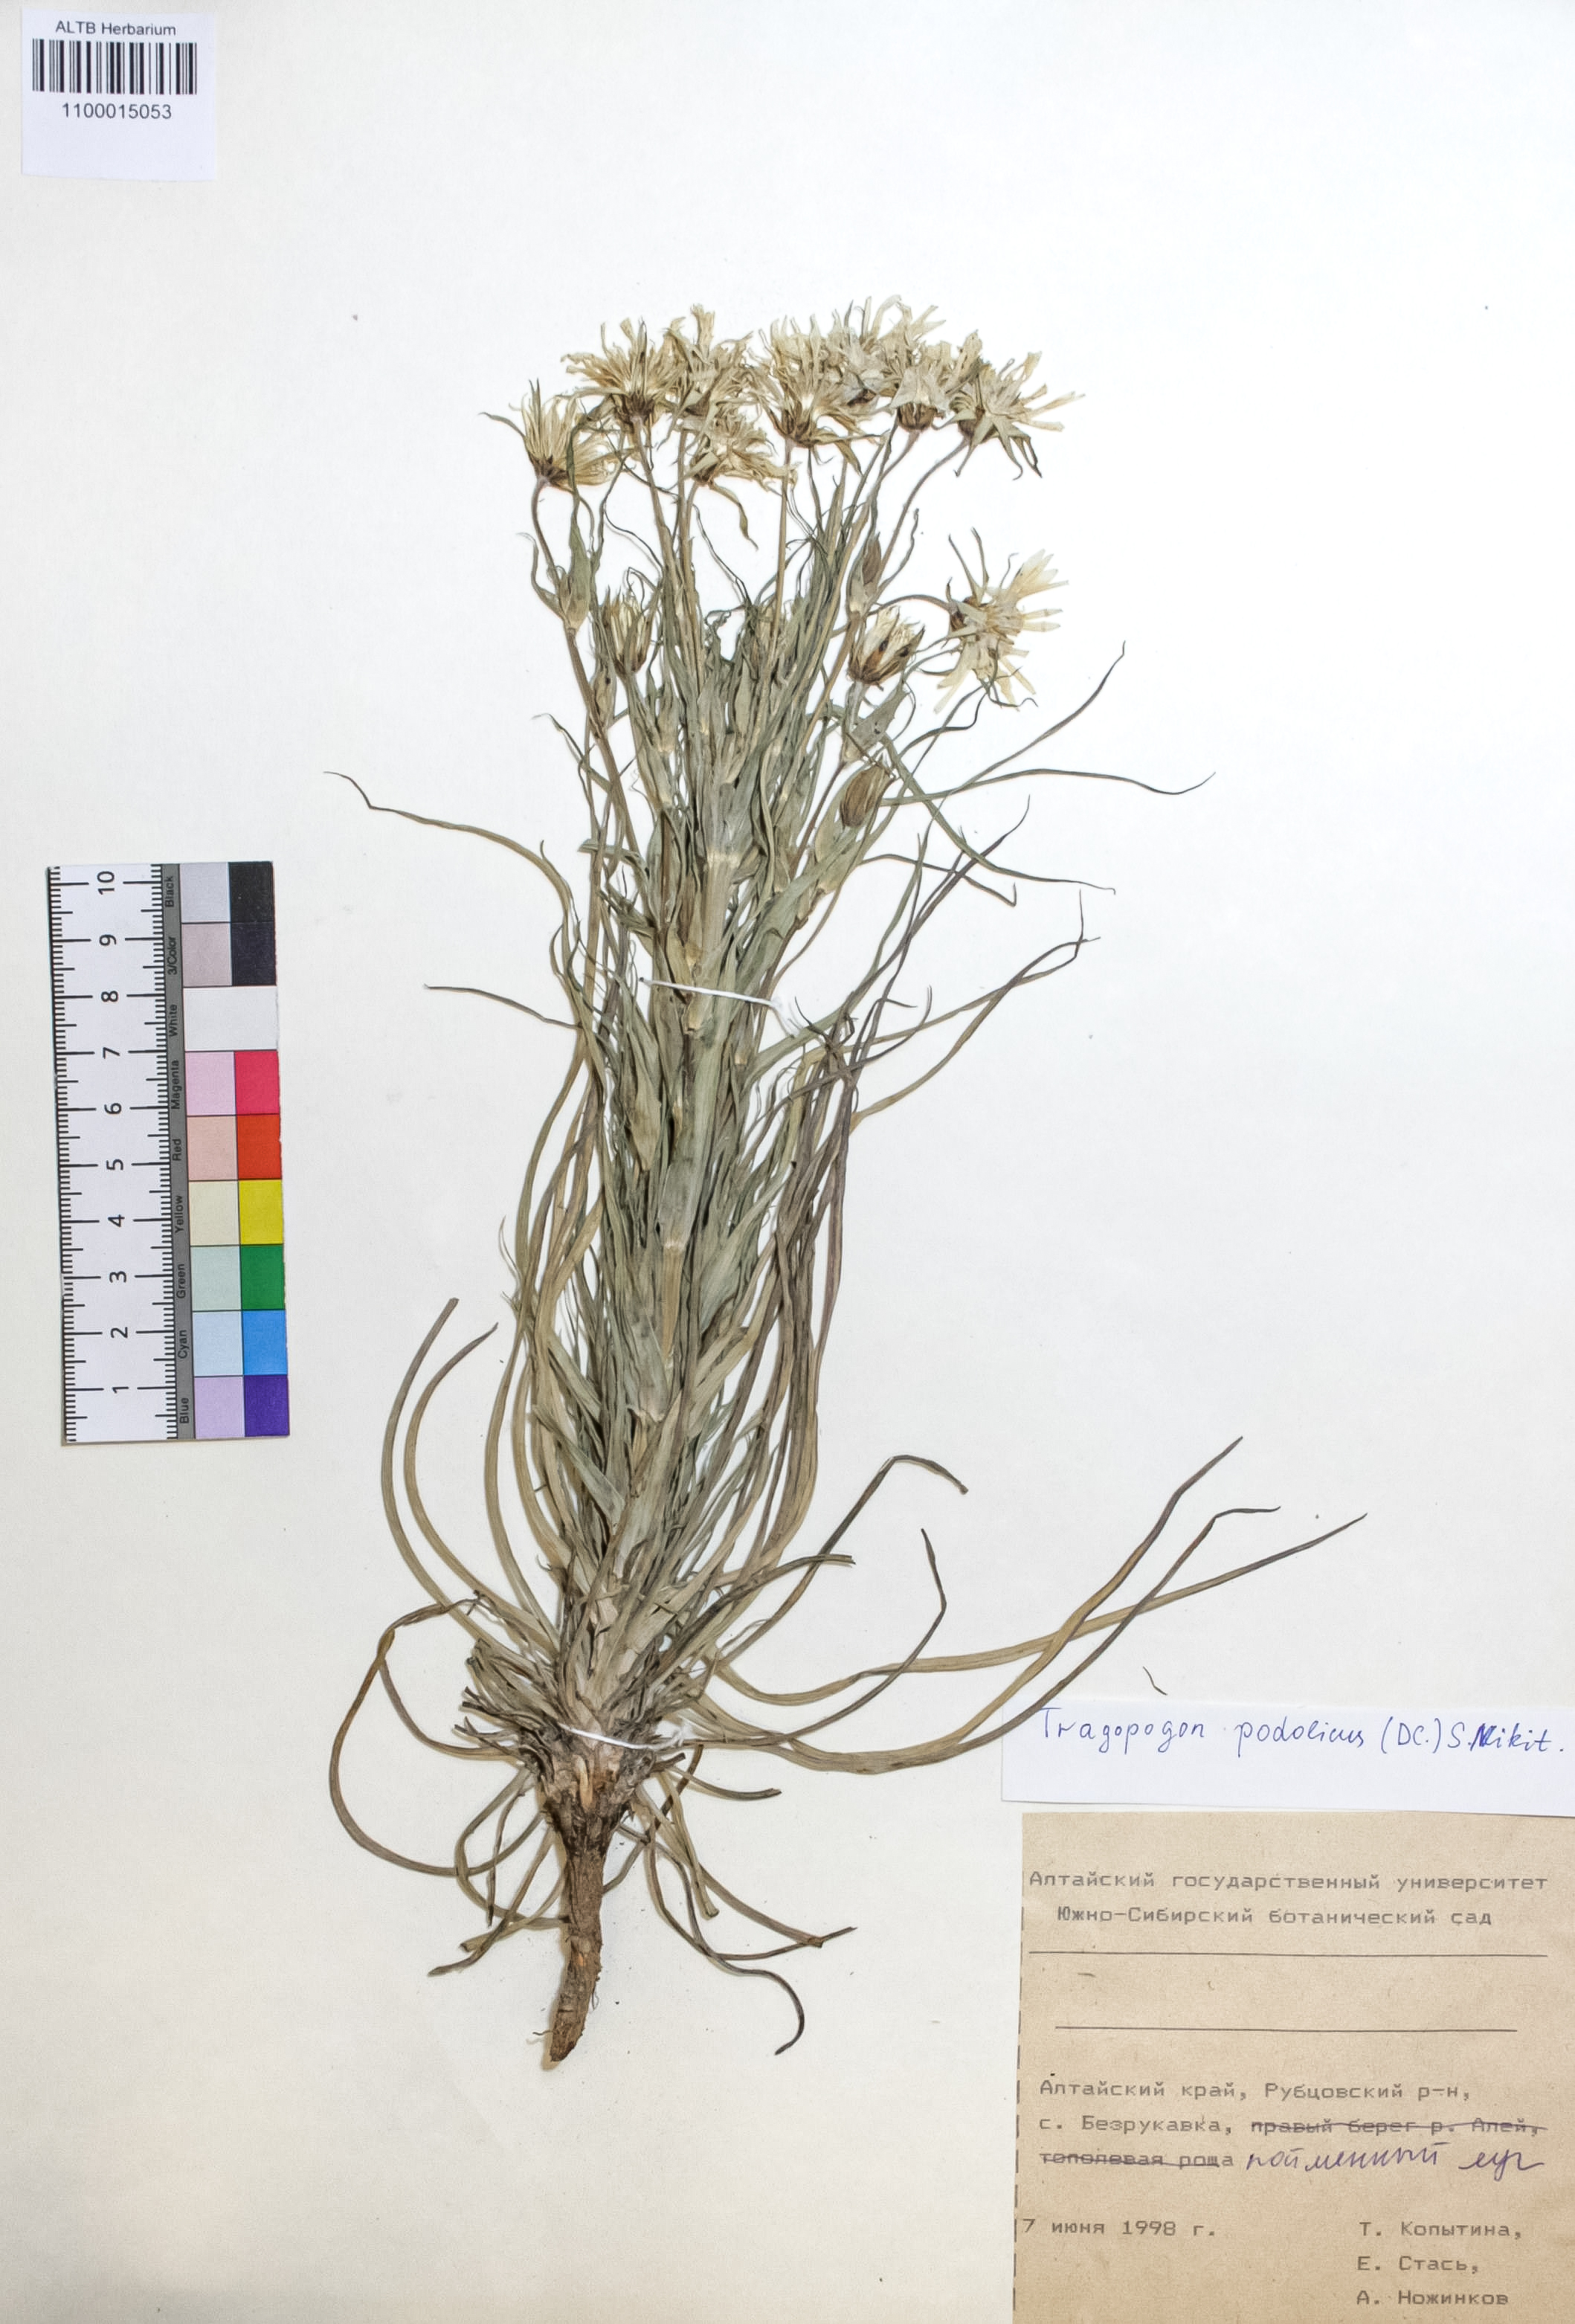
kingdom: Plantae
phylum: Tracheophyta
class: Magnoliopsida
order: Asterales
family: Asteraceae
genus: Tragopogon
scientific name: Tragopogon podolicus
